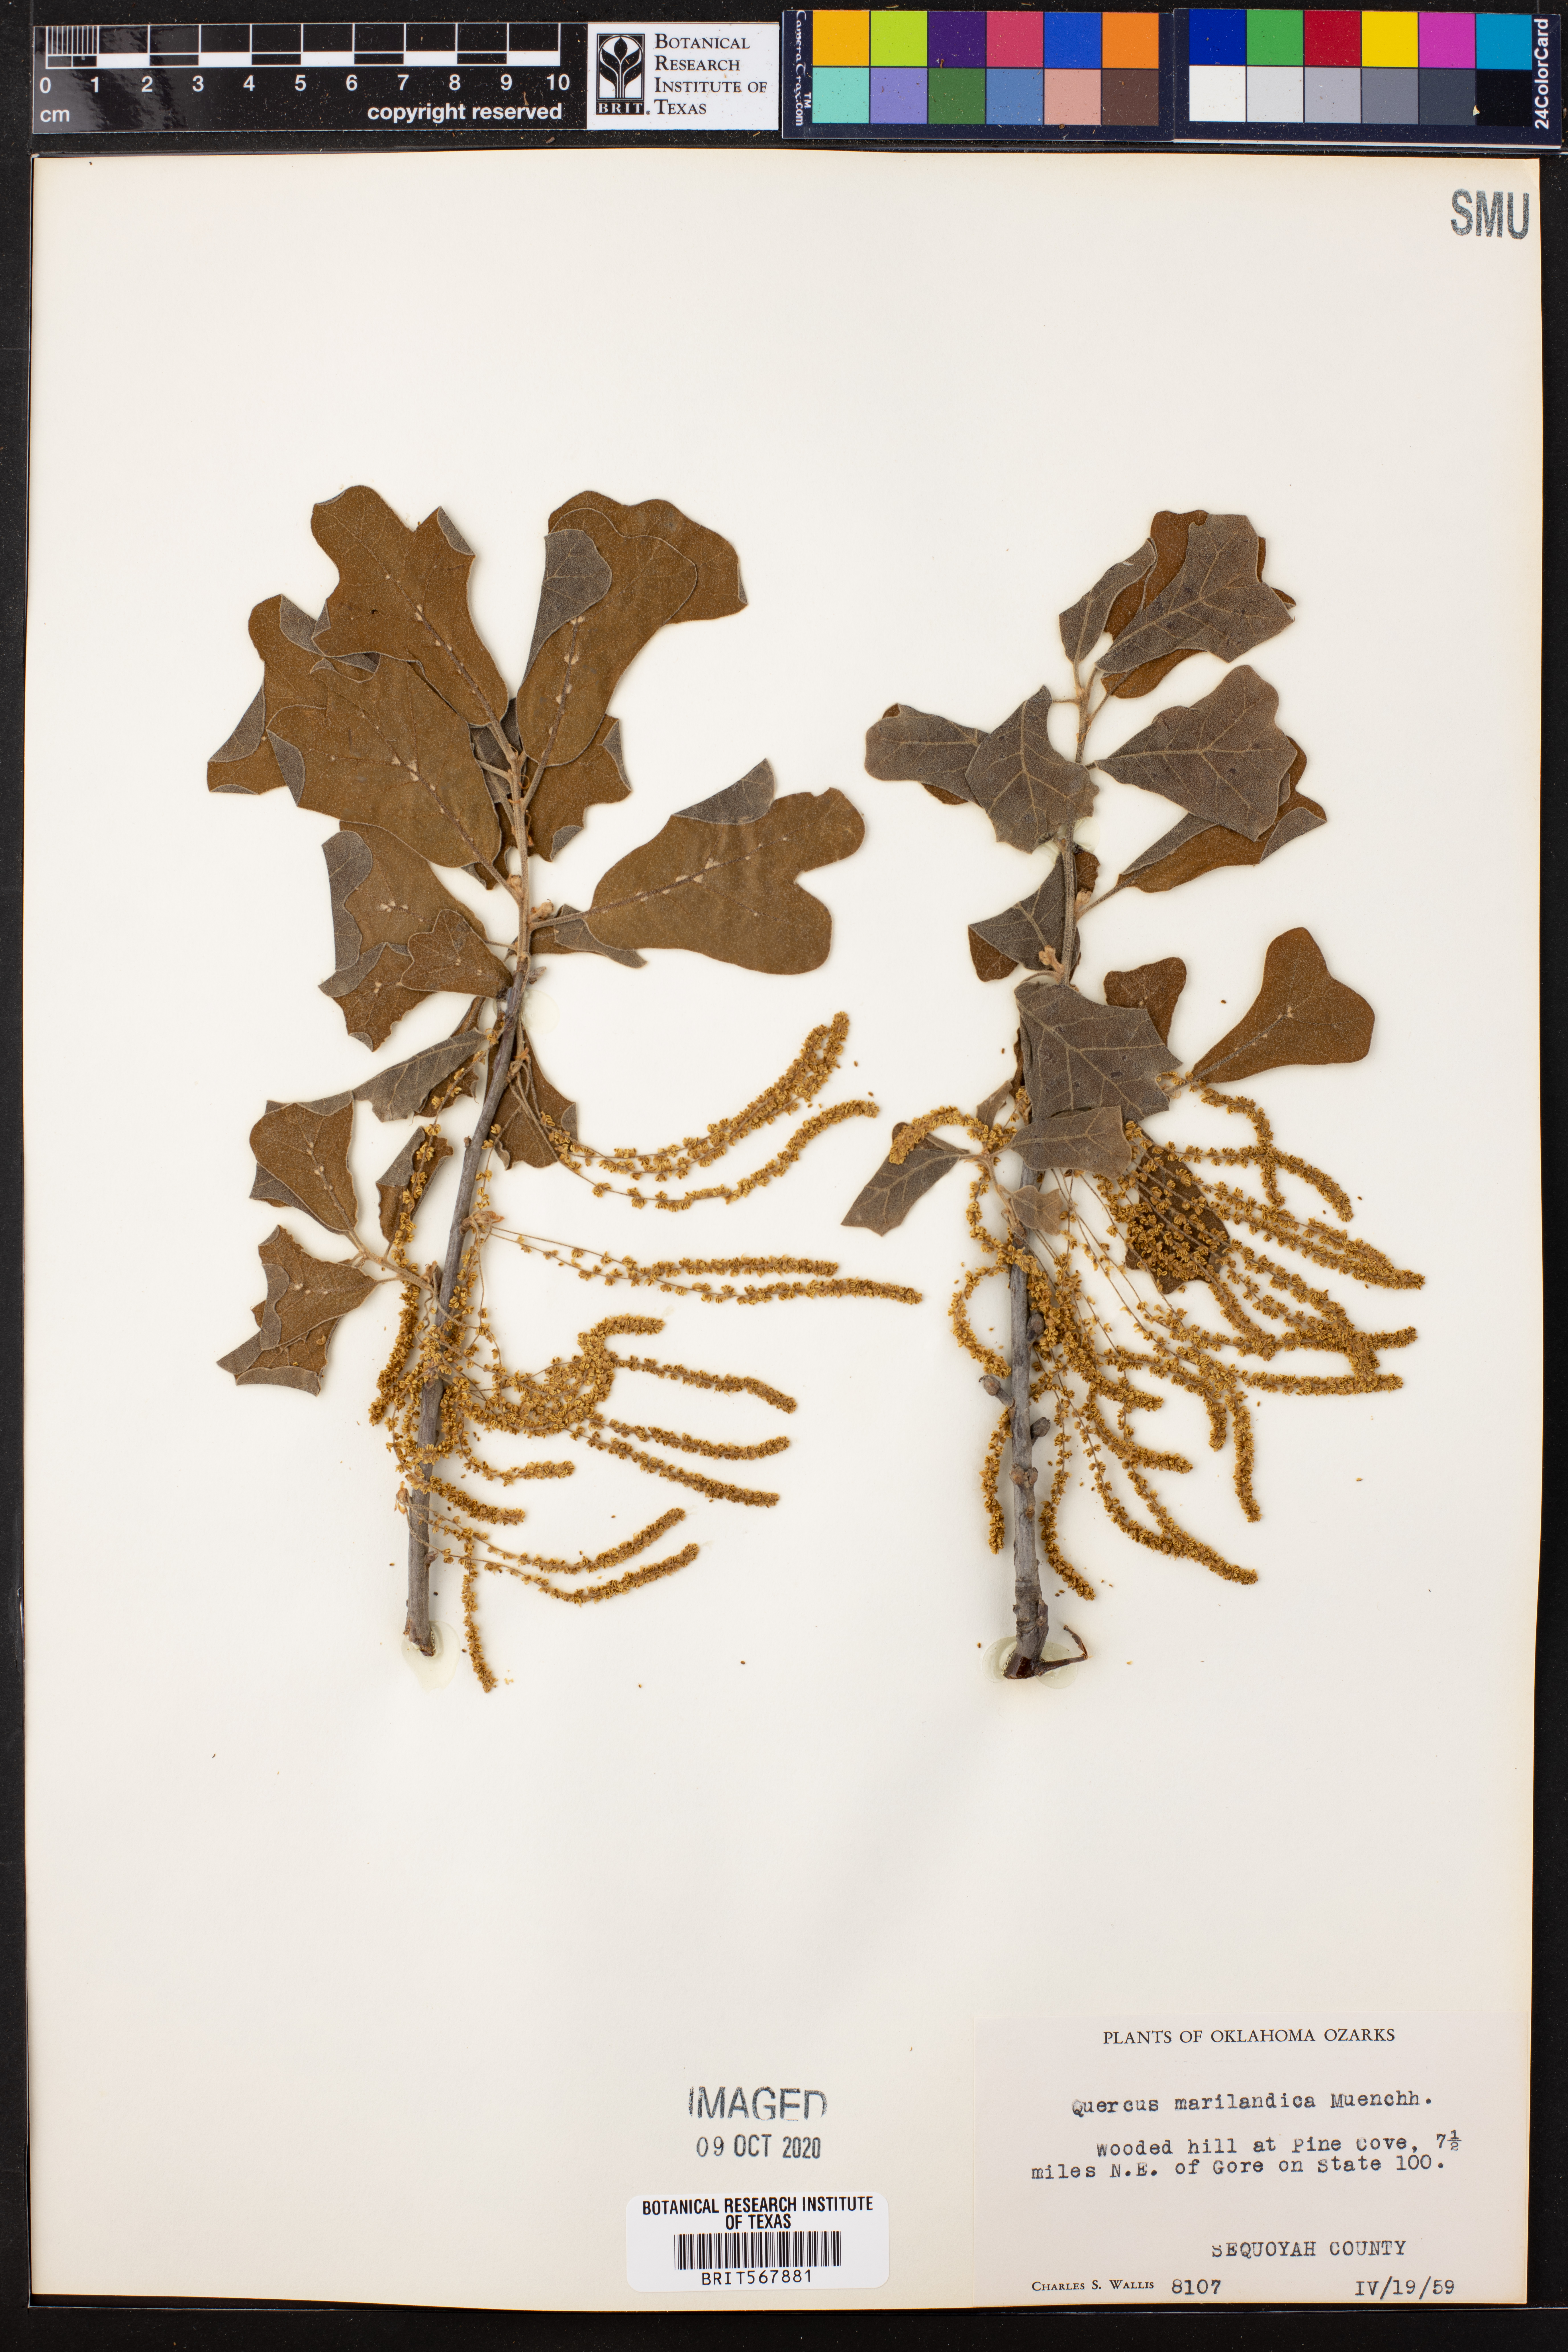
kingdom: Plantae
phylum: Tracheophyta
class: Magnoliopsida
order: Fagales
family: Fagaceae
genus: Quercus
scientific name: Quercus marilandica
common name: Blackjack oak
